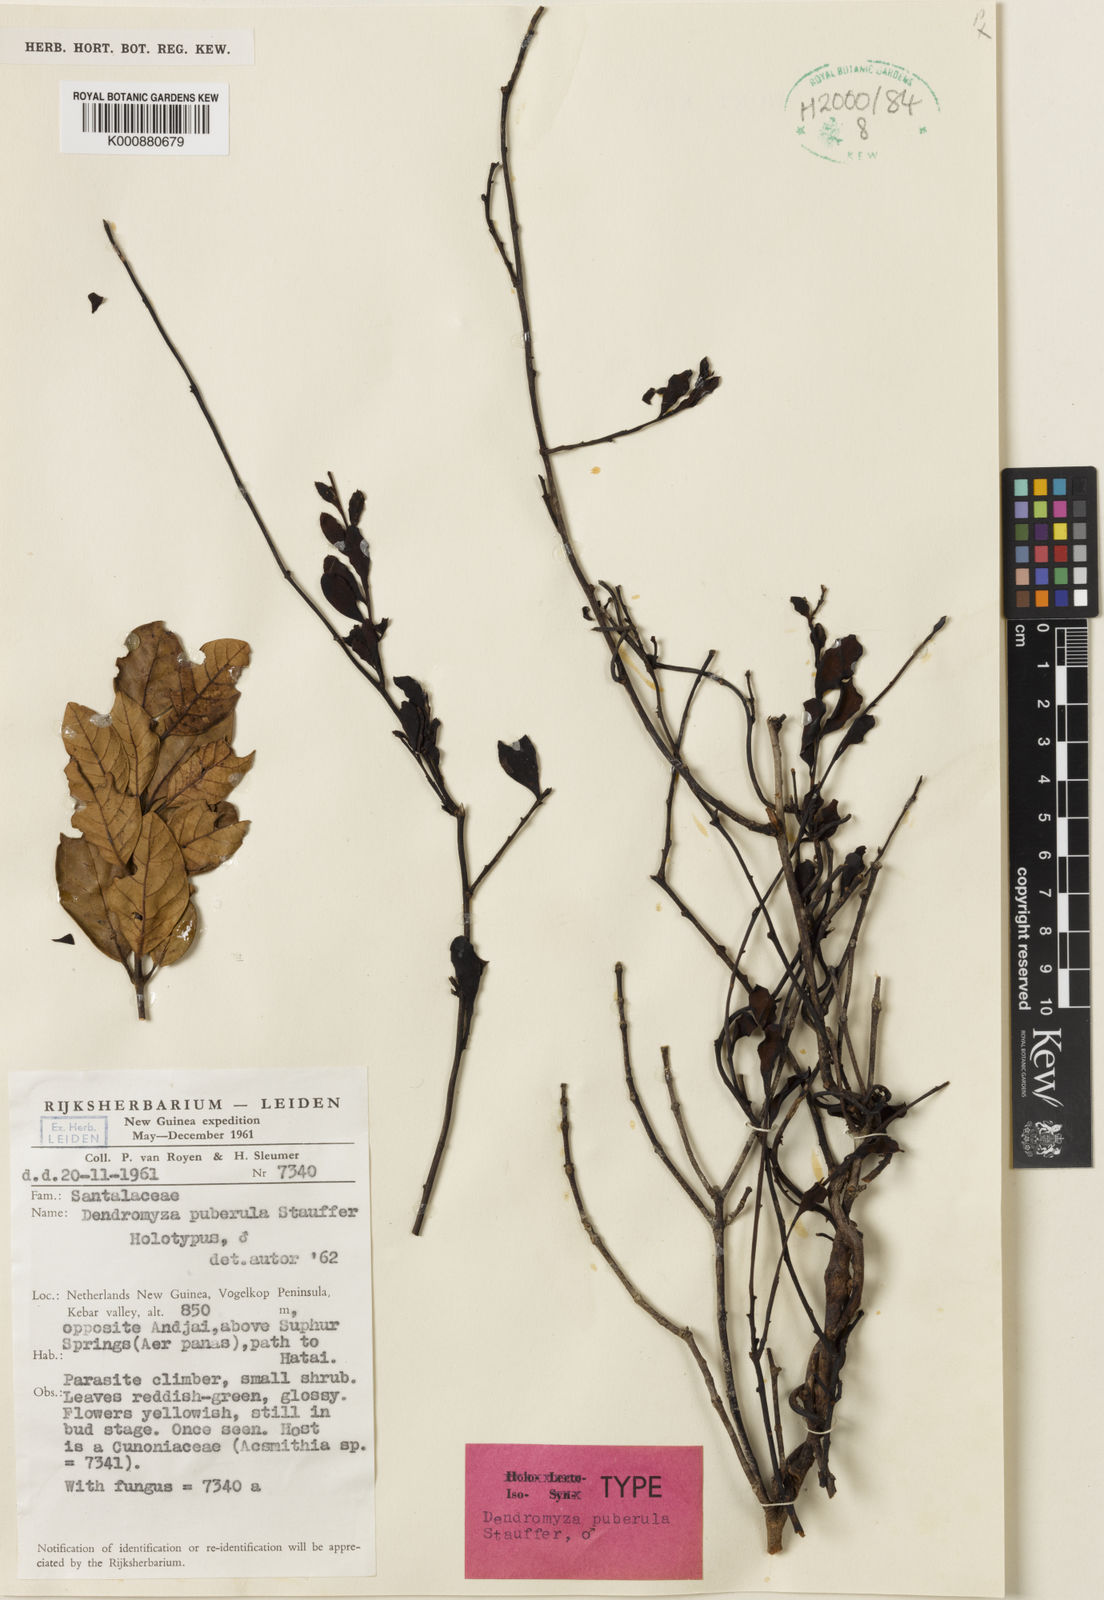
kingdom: Plantae
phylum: Tracheophyta
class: Magnoliopsida
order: Santalales
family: Amphorogynaceae
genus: Dendromyza
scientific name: Dendromyza puberula
